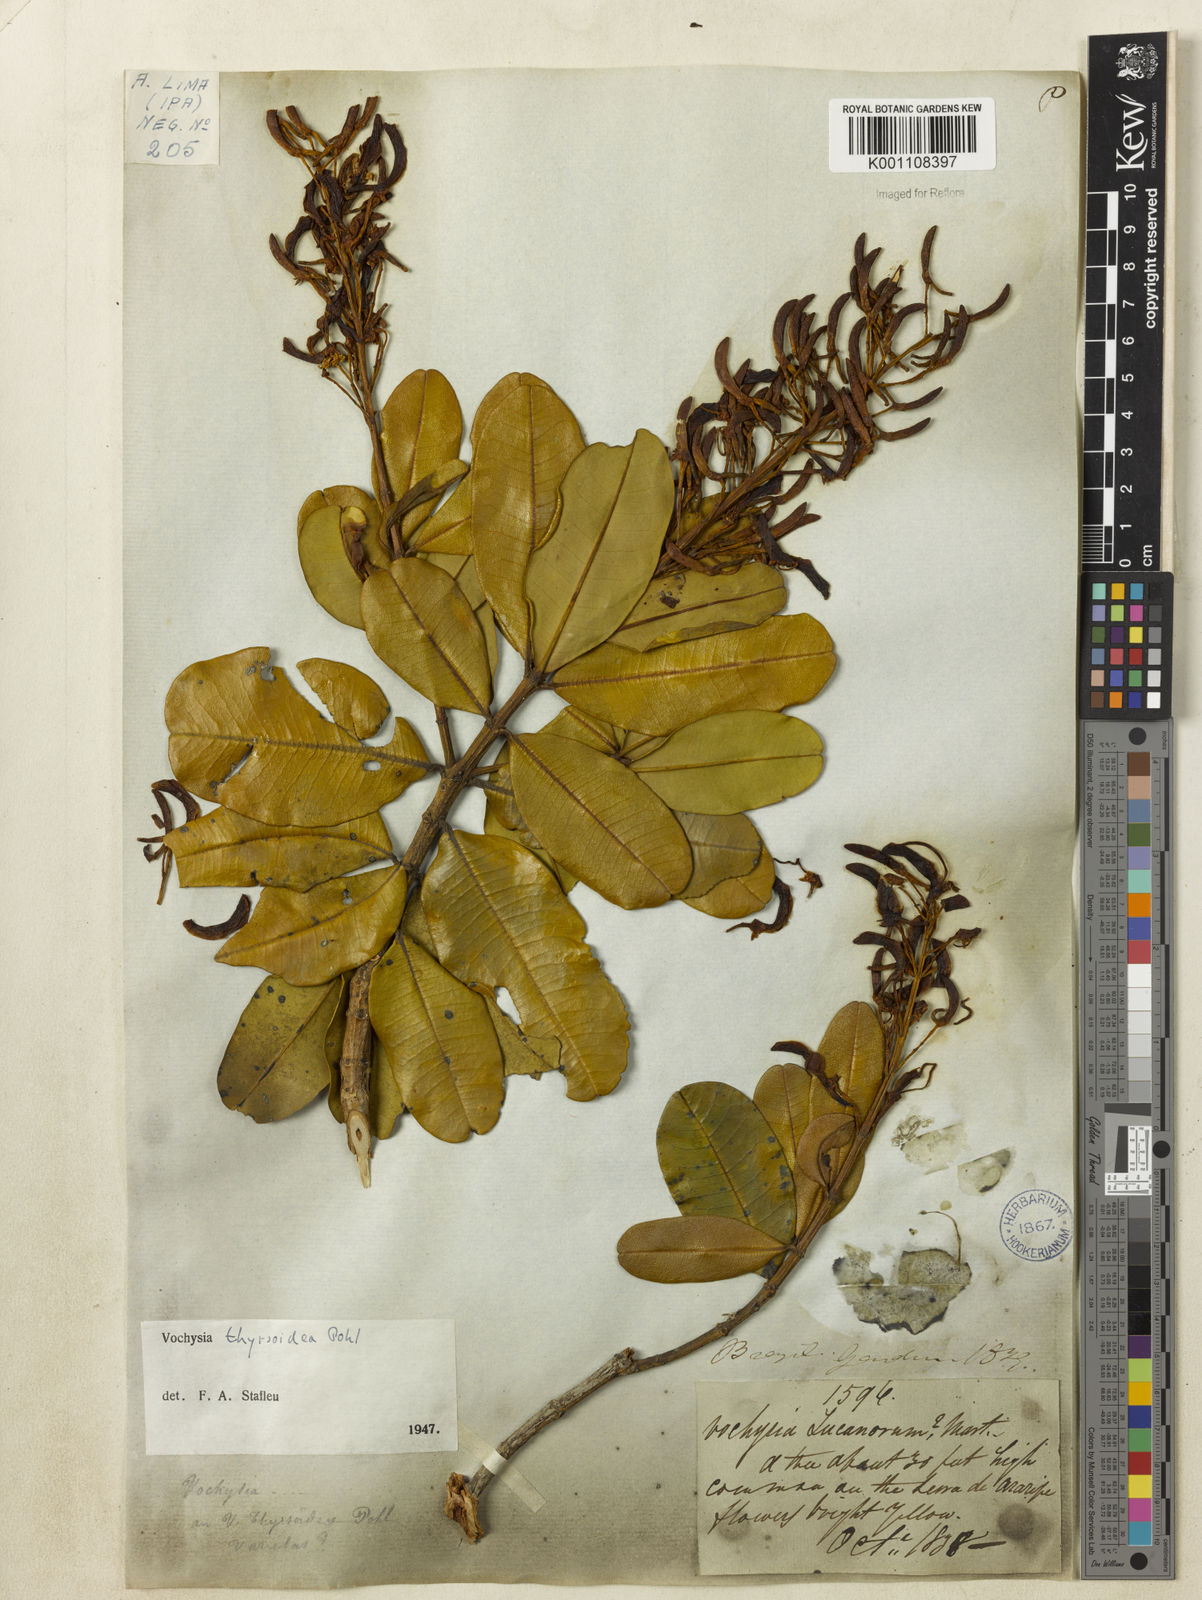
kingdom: Plantae
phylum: Tracheophyta
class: Magnoliopsida
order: Myrtales
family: Vochysiaceae
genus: Vochysia
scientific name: Vochysia thyrsoidea
